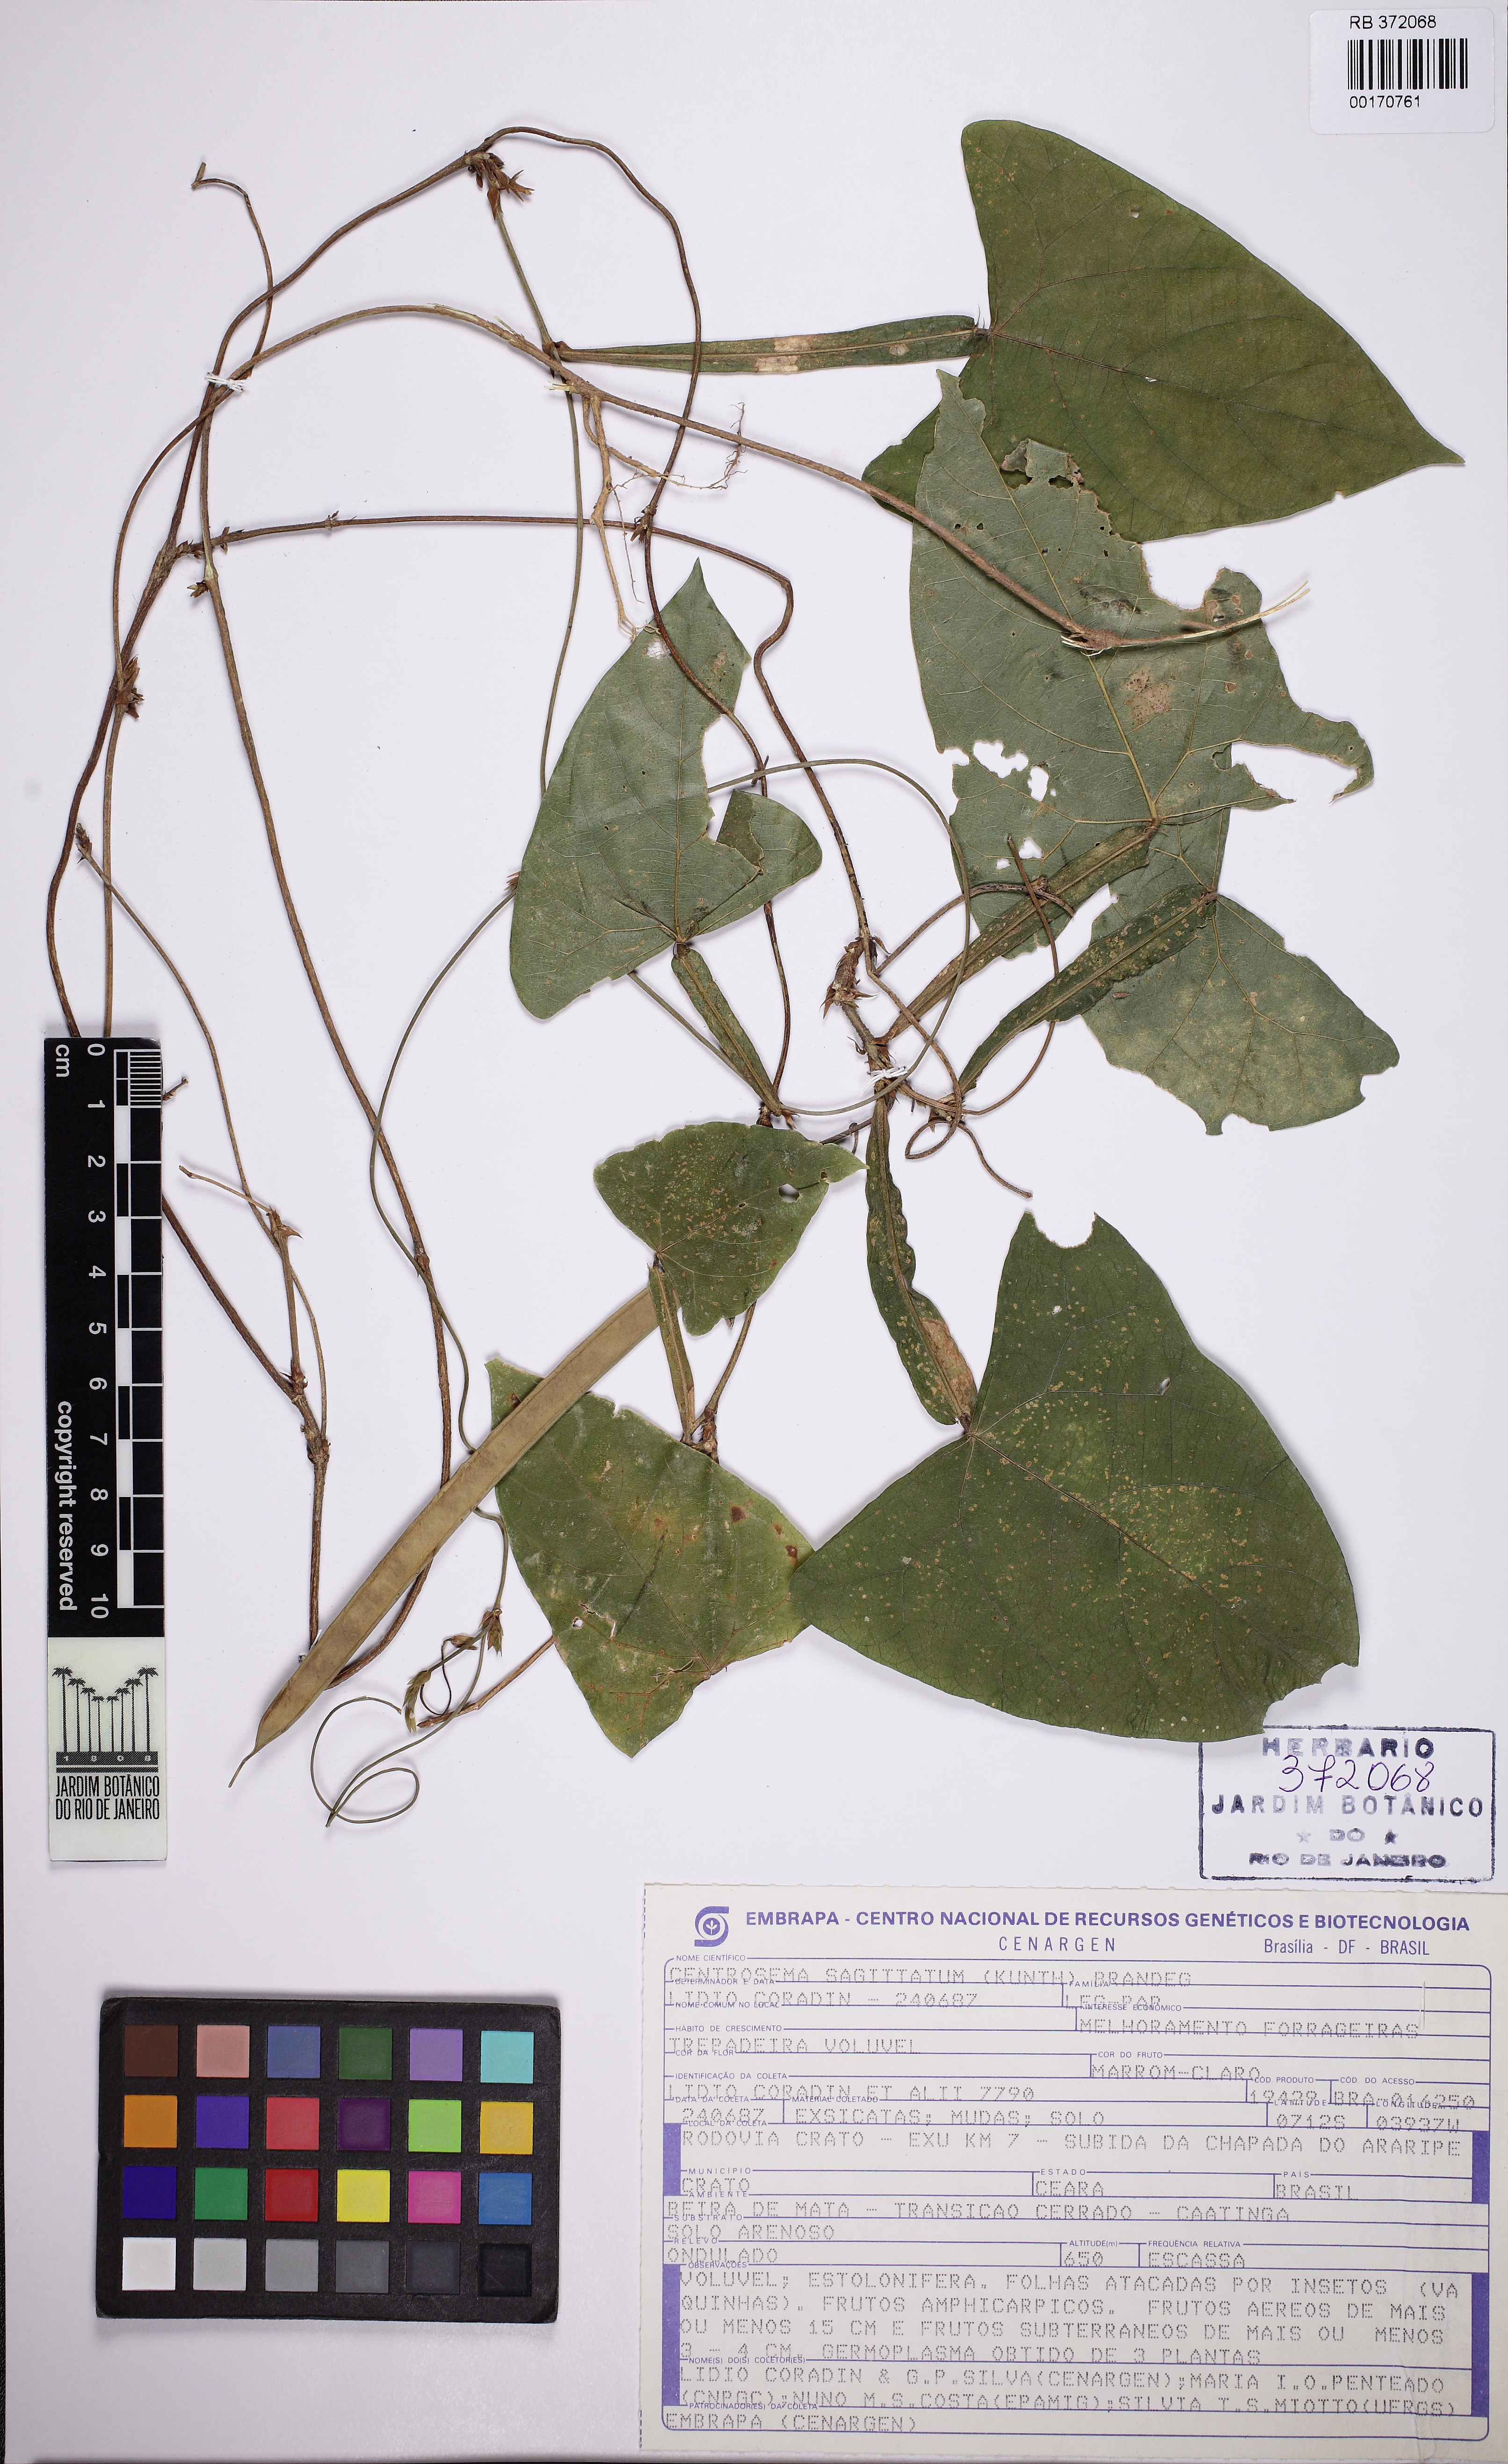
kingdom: Plantae
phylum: Tracheophyta
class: Magnoliopsida
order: Fabales
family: Fabaceae
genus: Centrosema
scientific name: Centrosema sagittatum
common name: Arrowleaf butterfly pea
